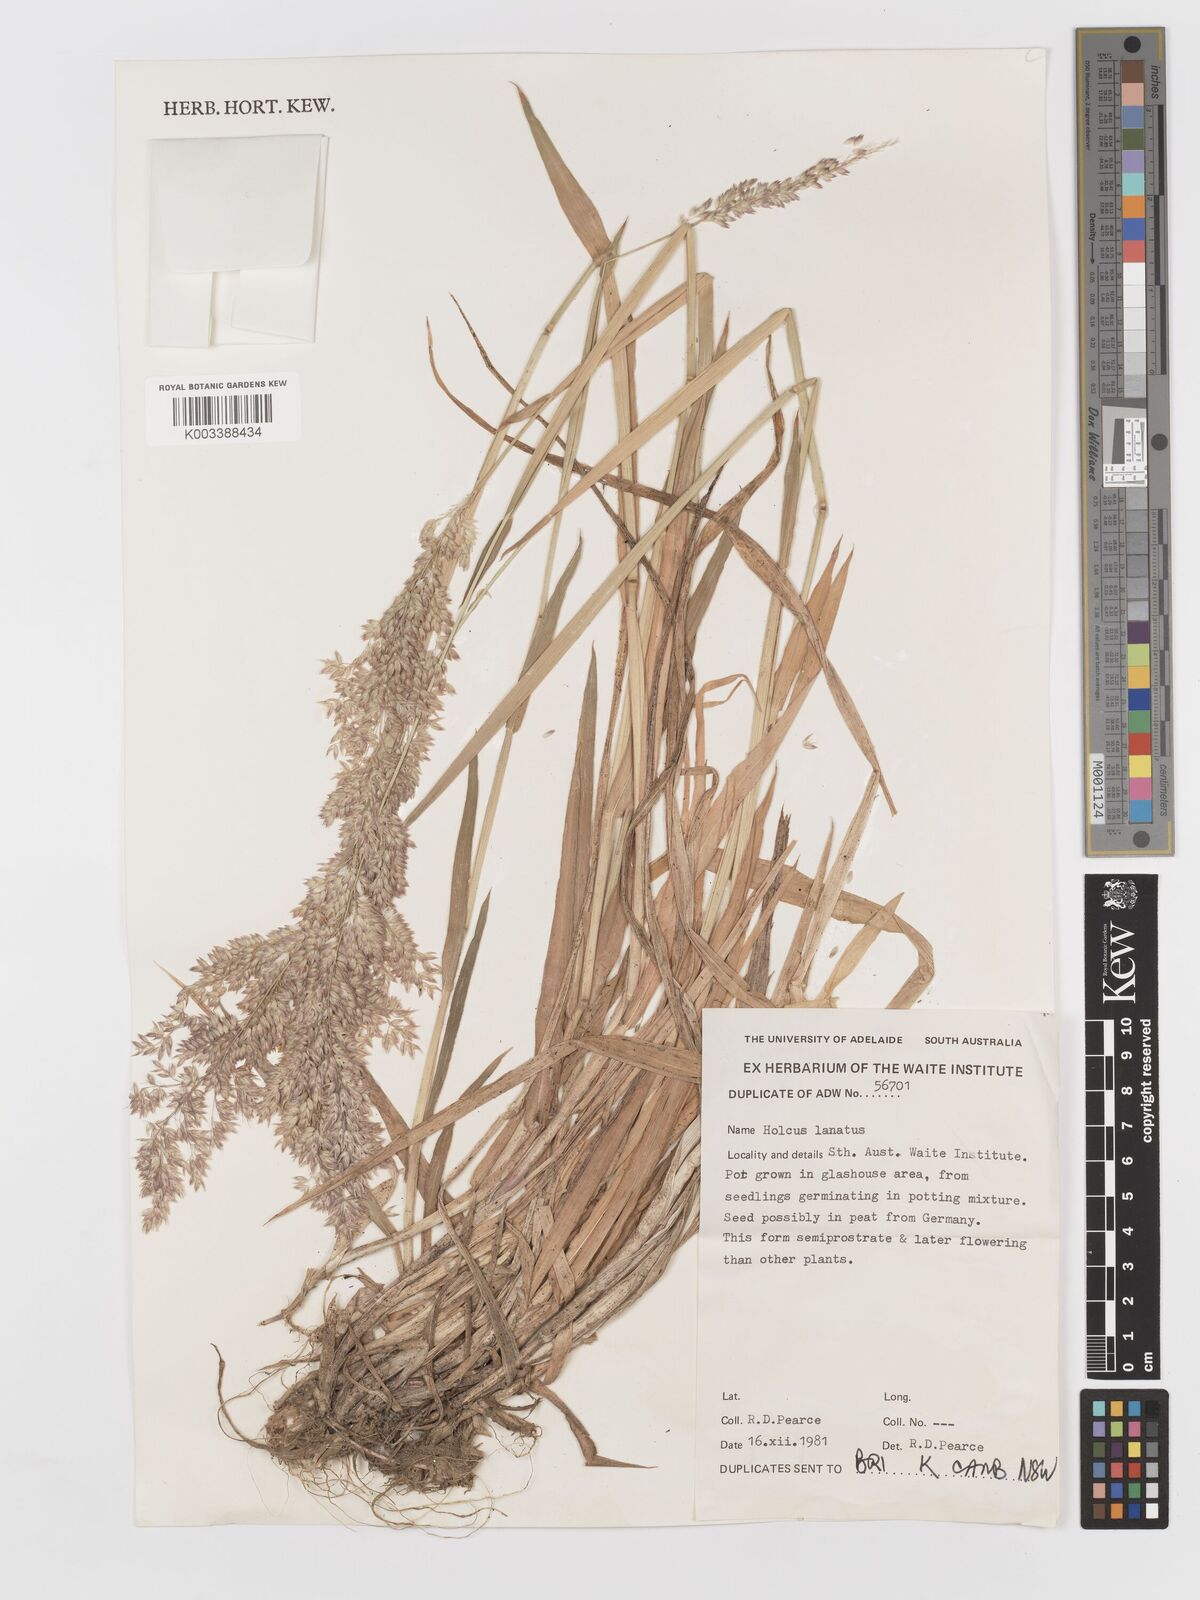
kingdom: Plantae
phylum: Tracheophyta
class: Liliopsida
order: Poales
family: Poaceae
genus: Holcus
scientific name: Holcus lanatus
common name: Yorkshire-fog
